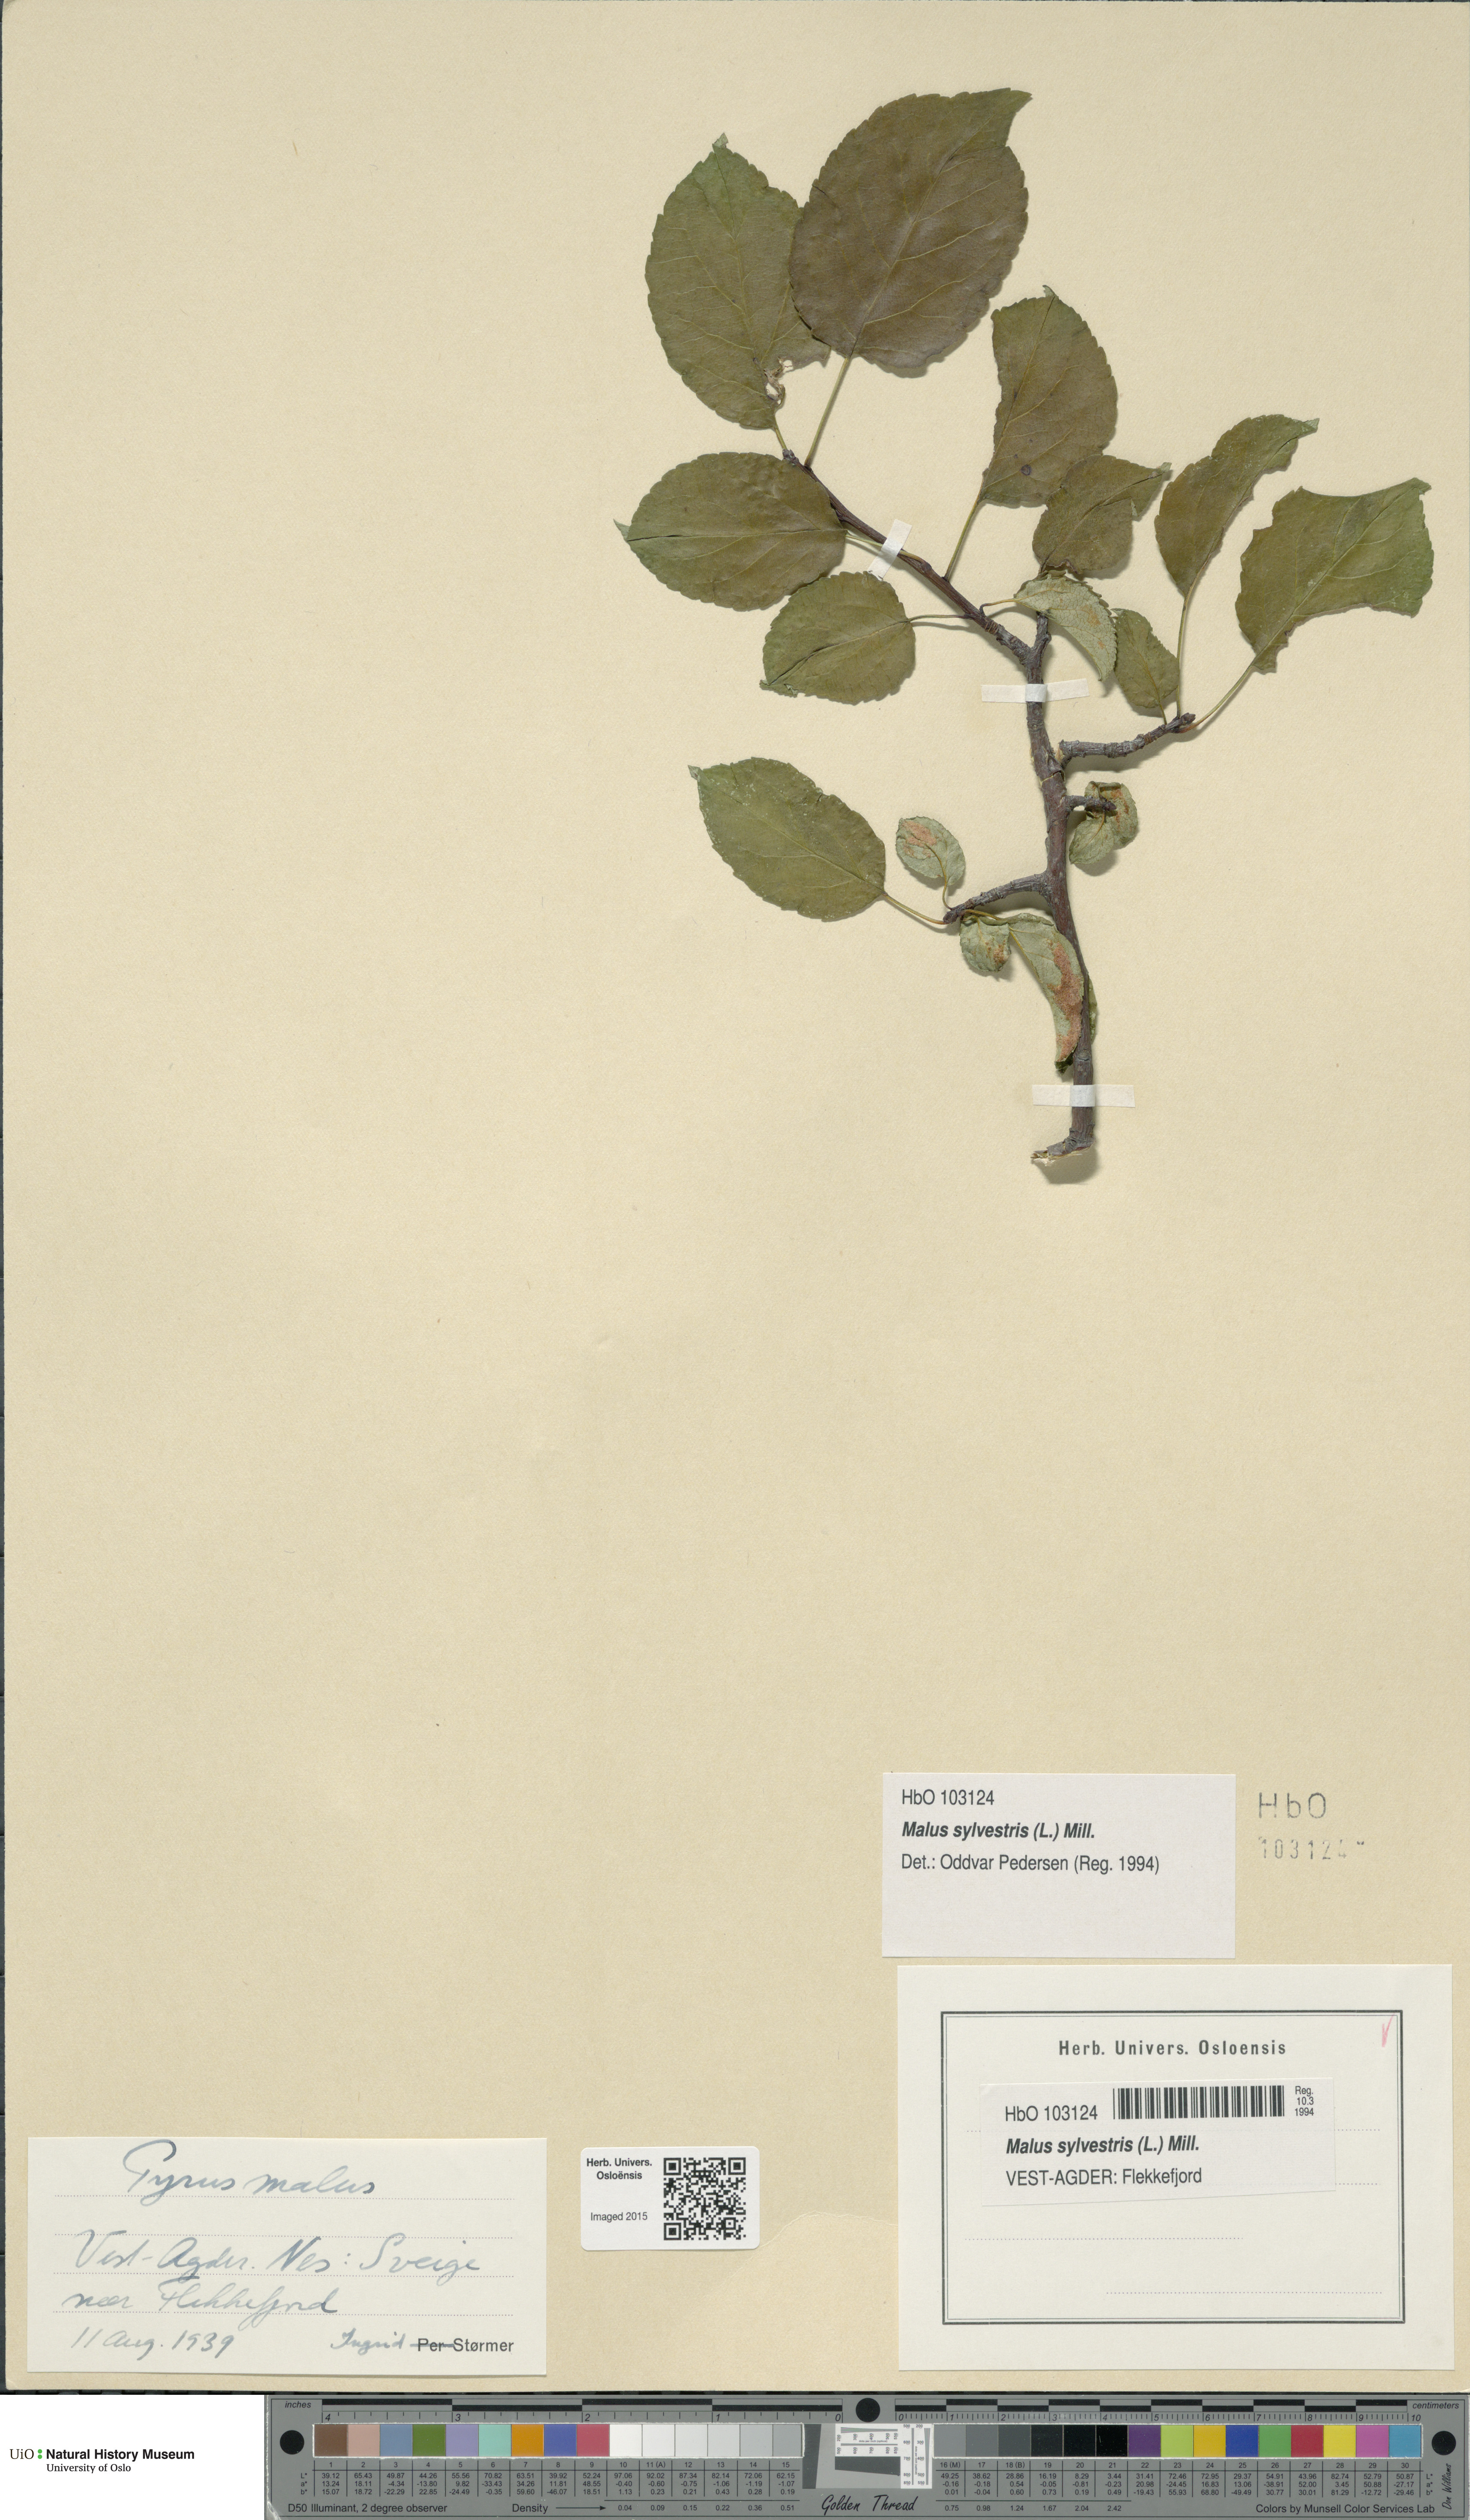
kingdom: Plantae
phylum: Tracheophyta
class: Magnoliopsida
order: Rosales
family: Rosaceae
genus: Malus
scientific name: Malus sylvestris
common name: Crab apple
